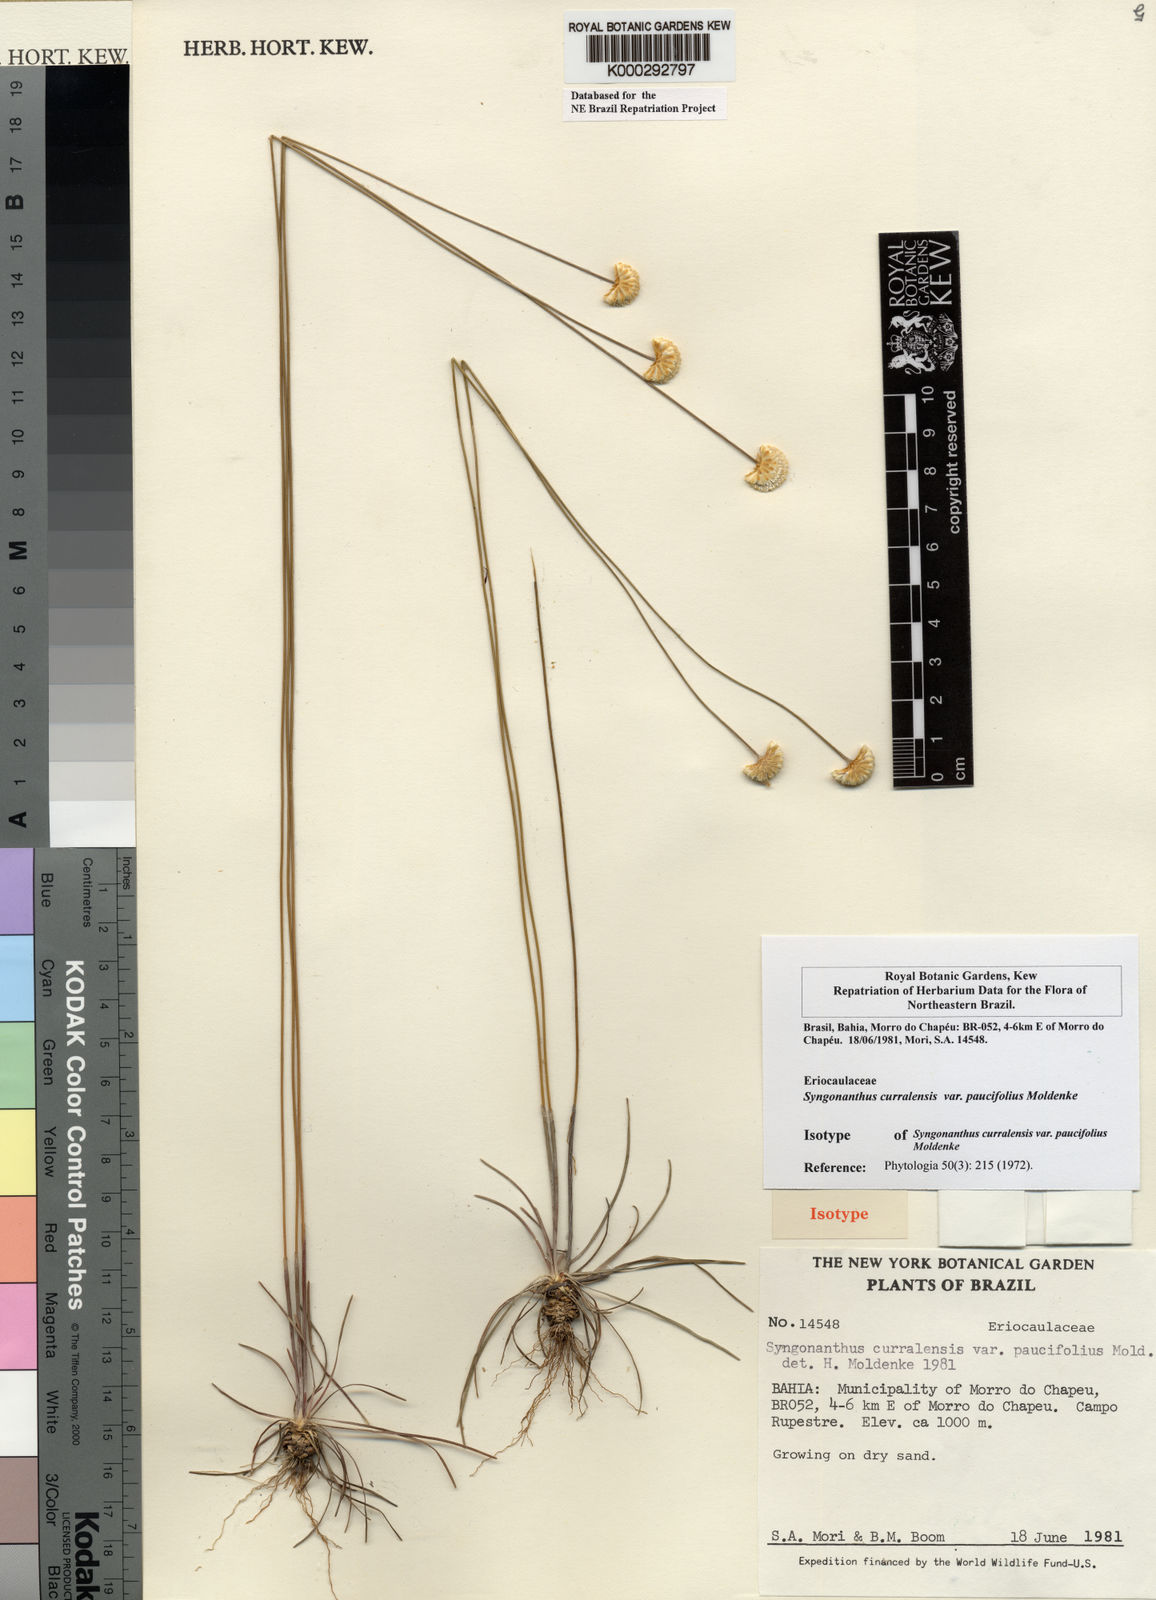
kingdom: Plantae
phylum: Tracheophyta
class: Liliopsida
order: Poales
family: Eriocaulaceae
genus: Comanthera
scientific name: Comanthera curralensis
